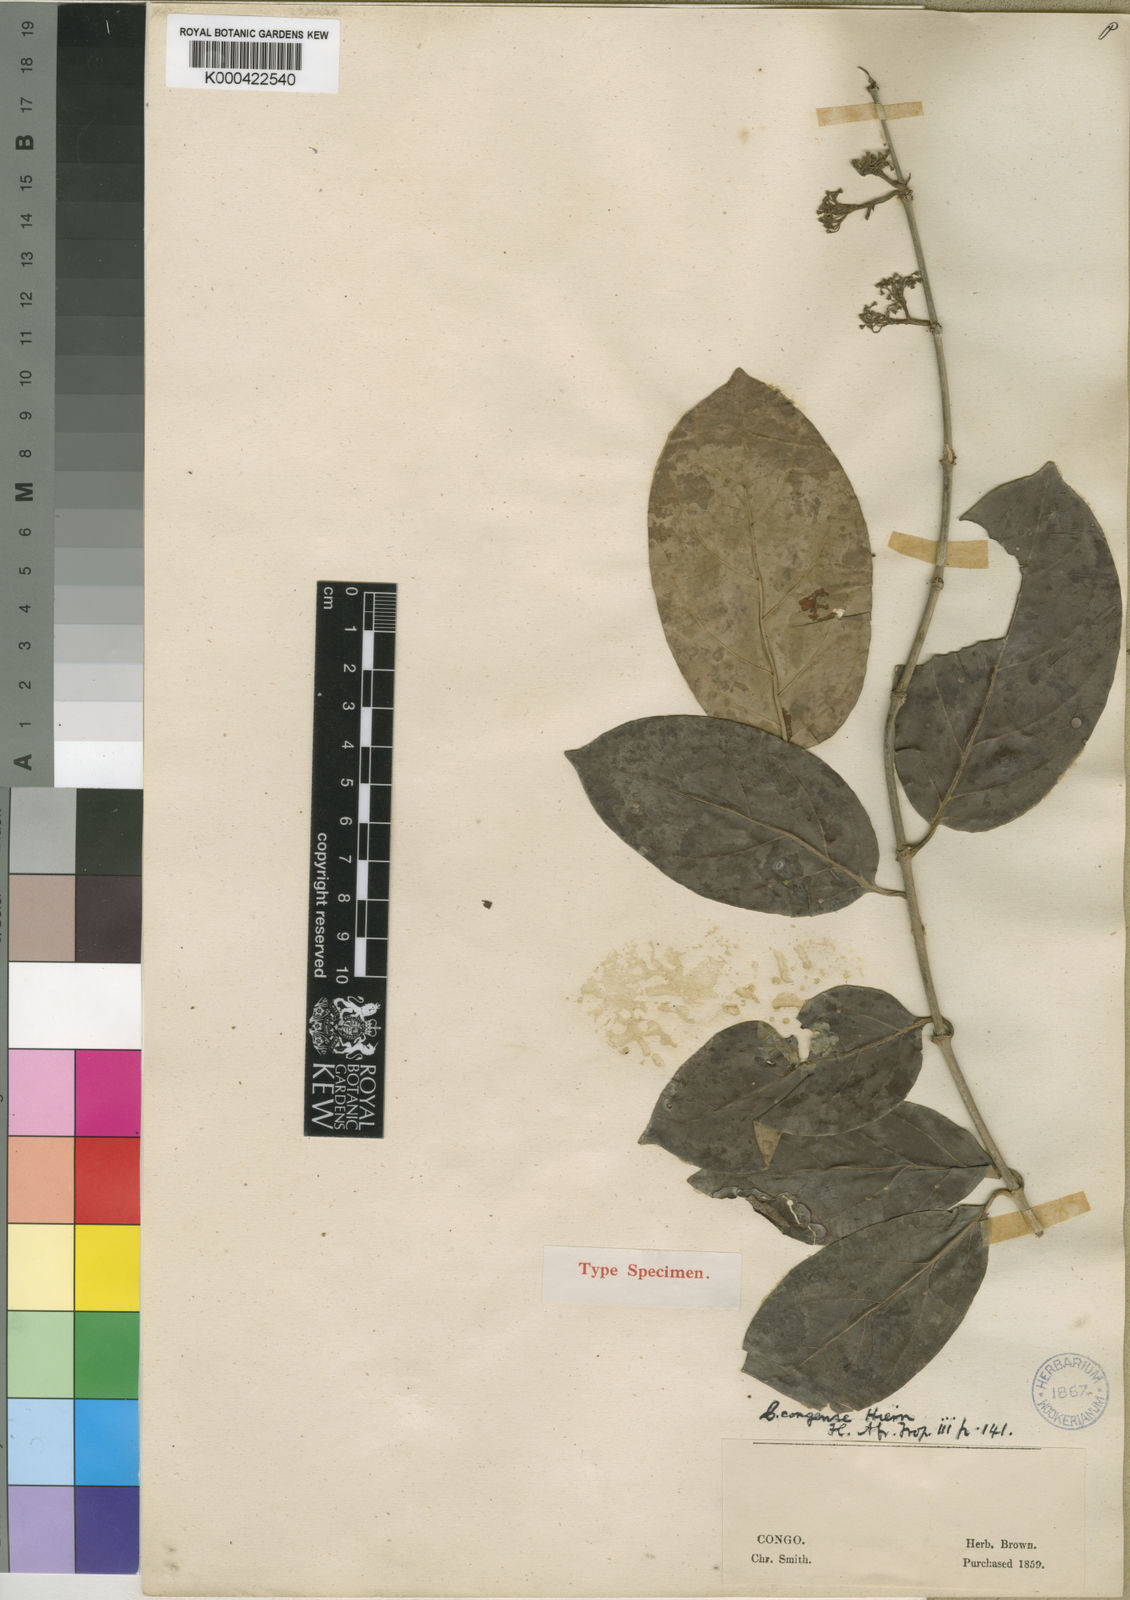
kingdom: Plantae
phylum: Tracheophyta
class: Magnoliopsida
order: Gentianales
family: Rubiaceae
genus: Keetia
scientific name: Keetia gracilis
